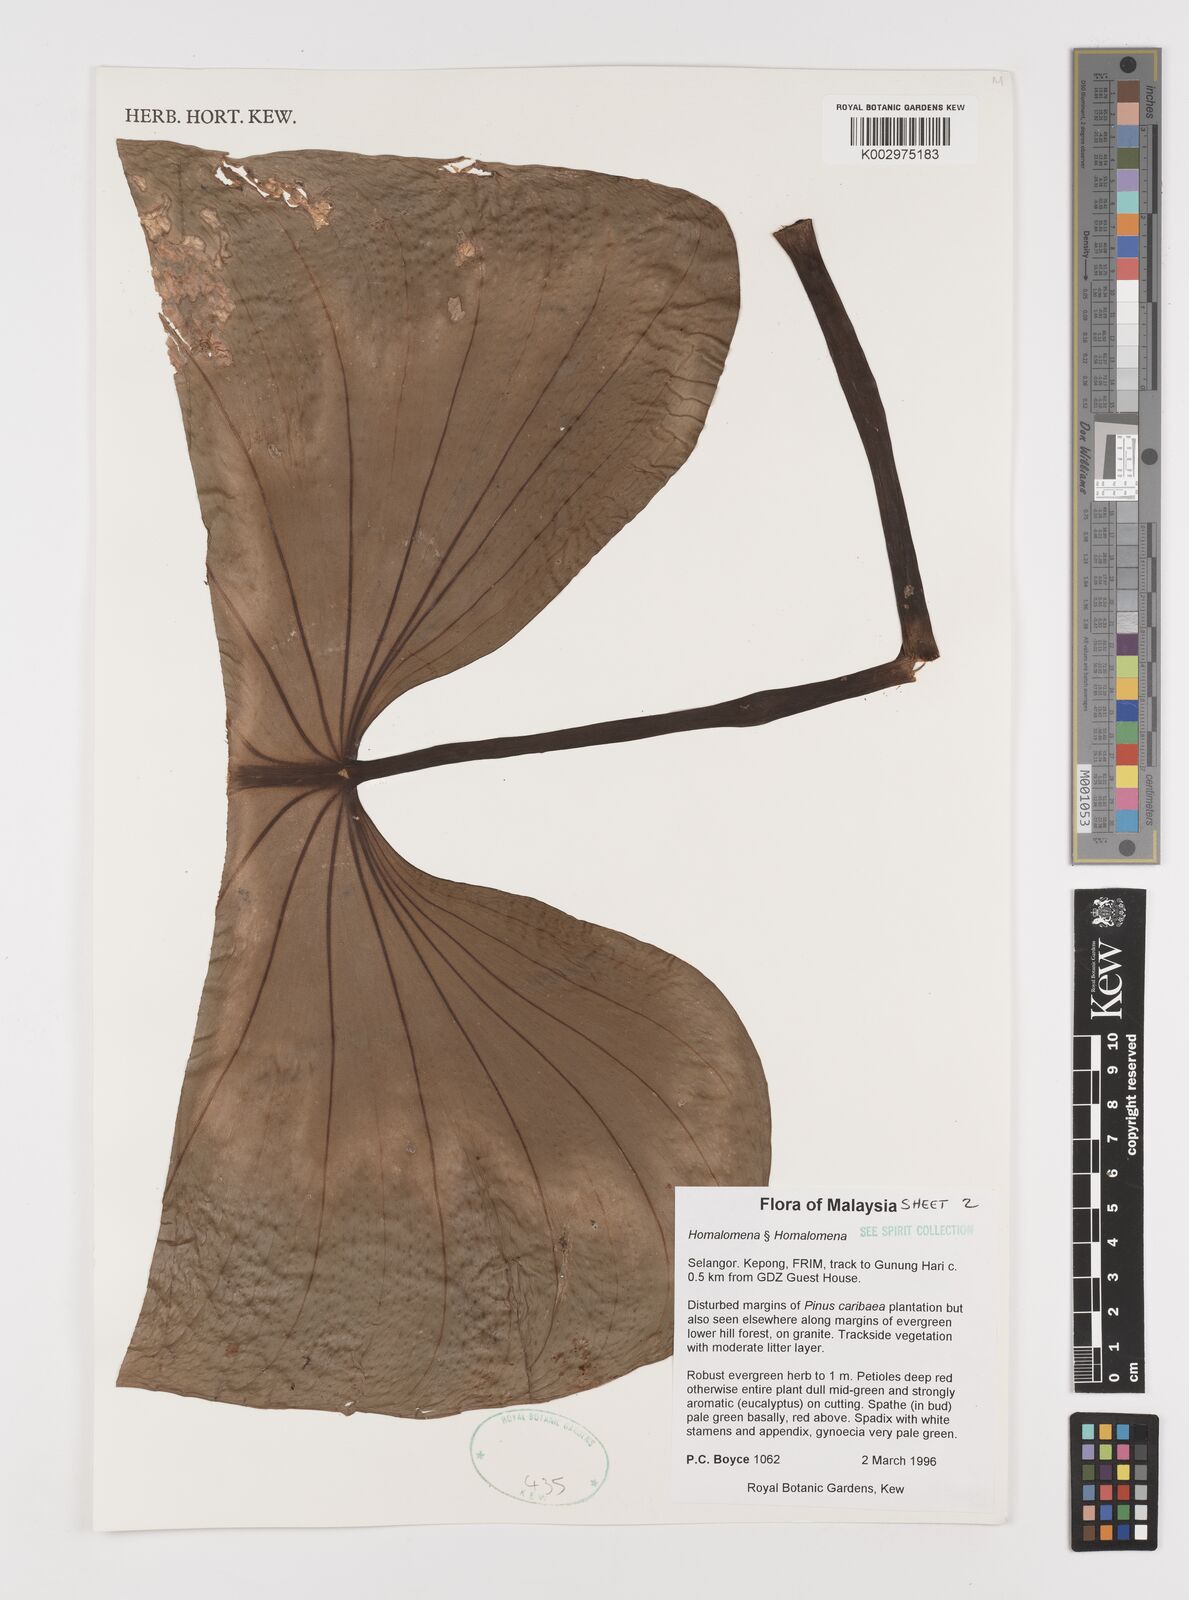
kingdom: Plantae
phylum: Tracheophyta
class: Liliopsida
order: Alismatales
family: Araceae
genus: Homalomena
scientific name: Homalomena
